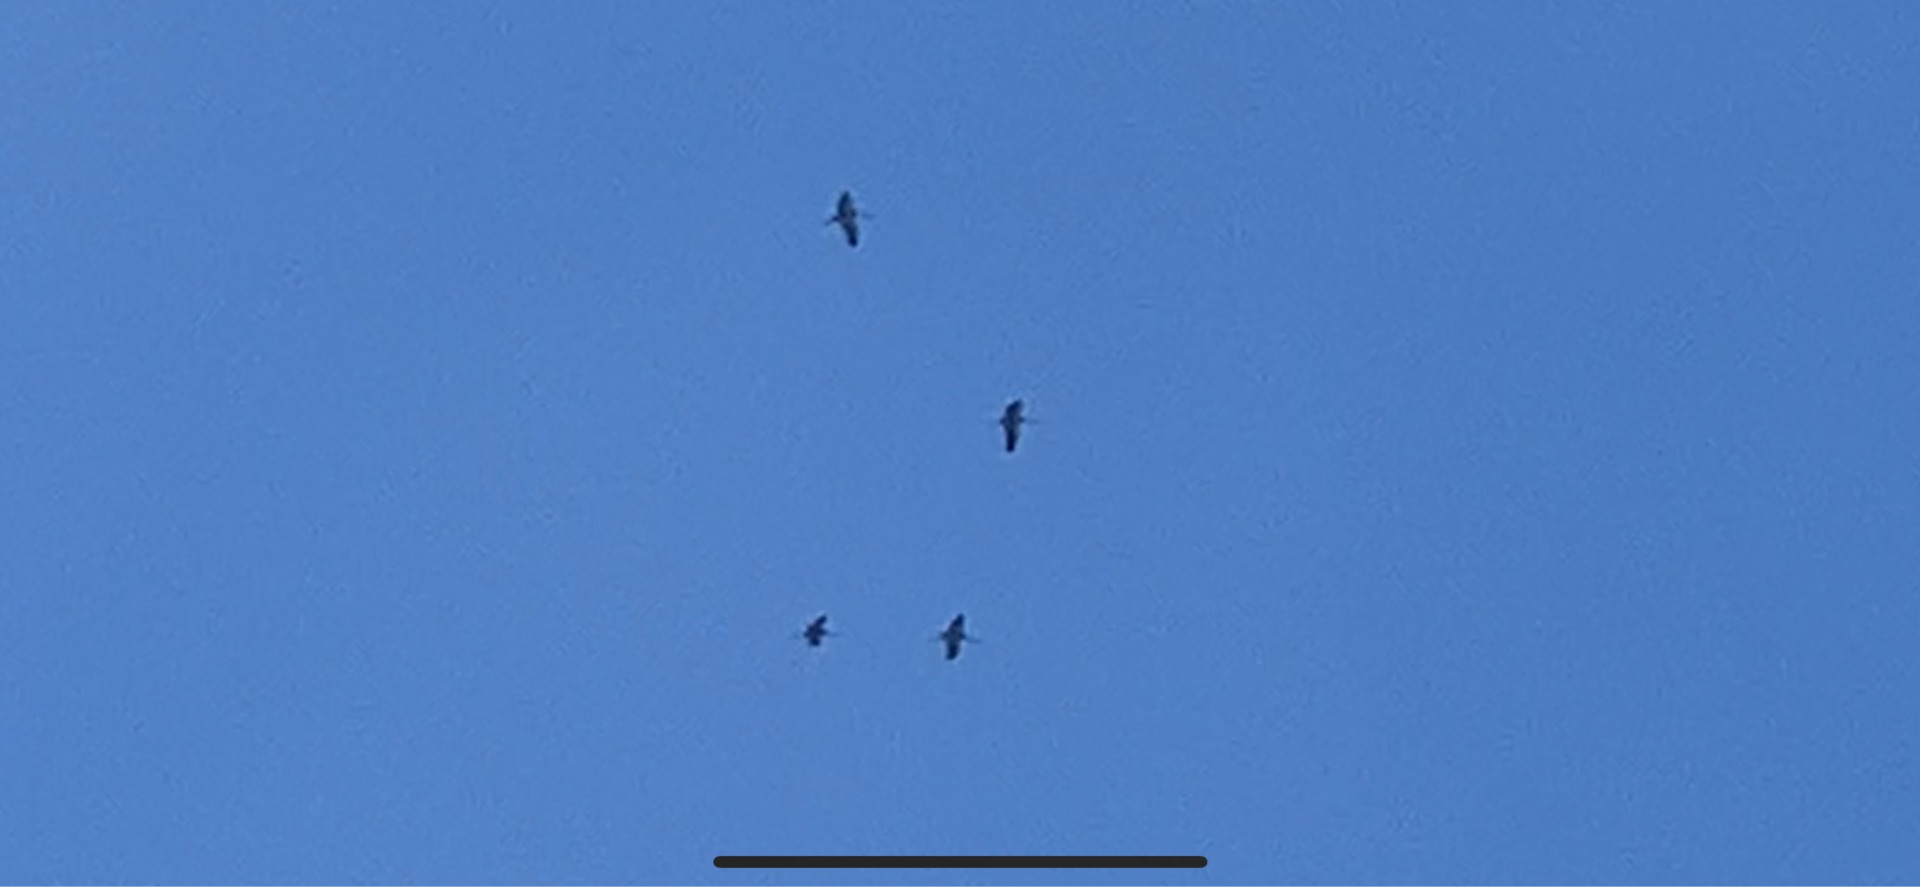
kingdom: Animalia
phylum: Chordata
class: Aves
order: Gruiformes
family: Gruidae
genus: Grus
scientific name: Grus grus
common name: Trane
